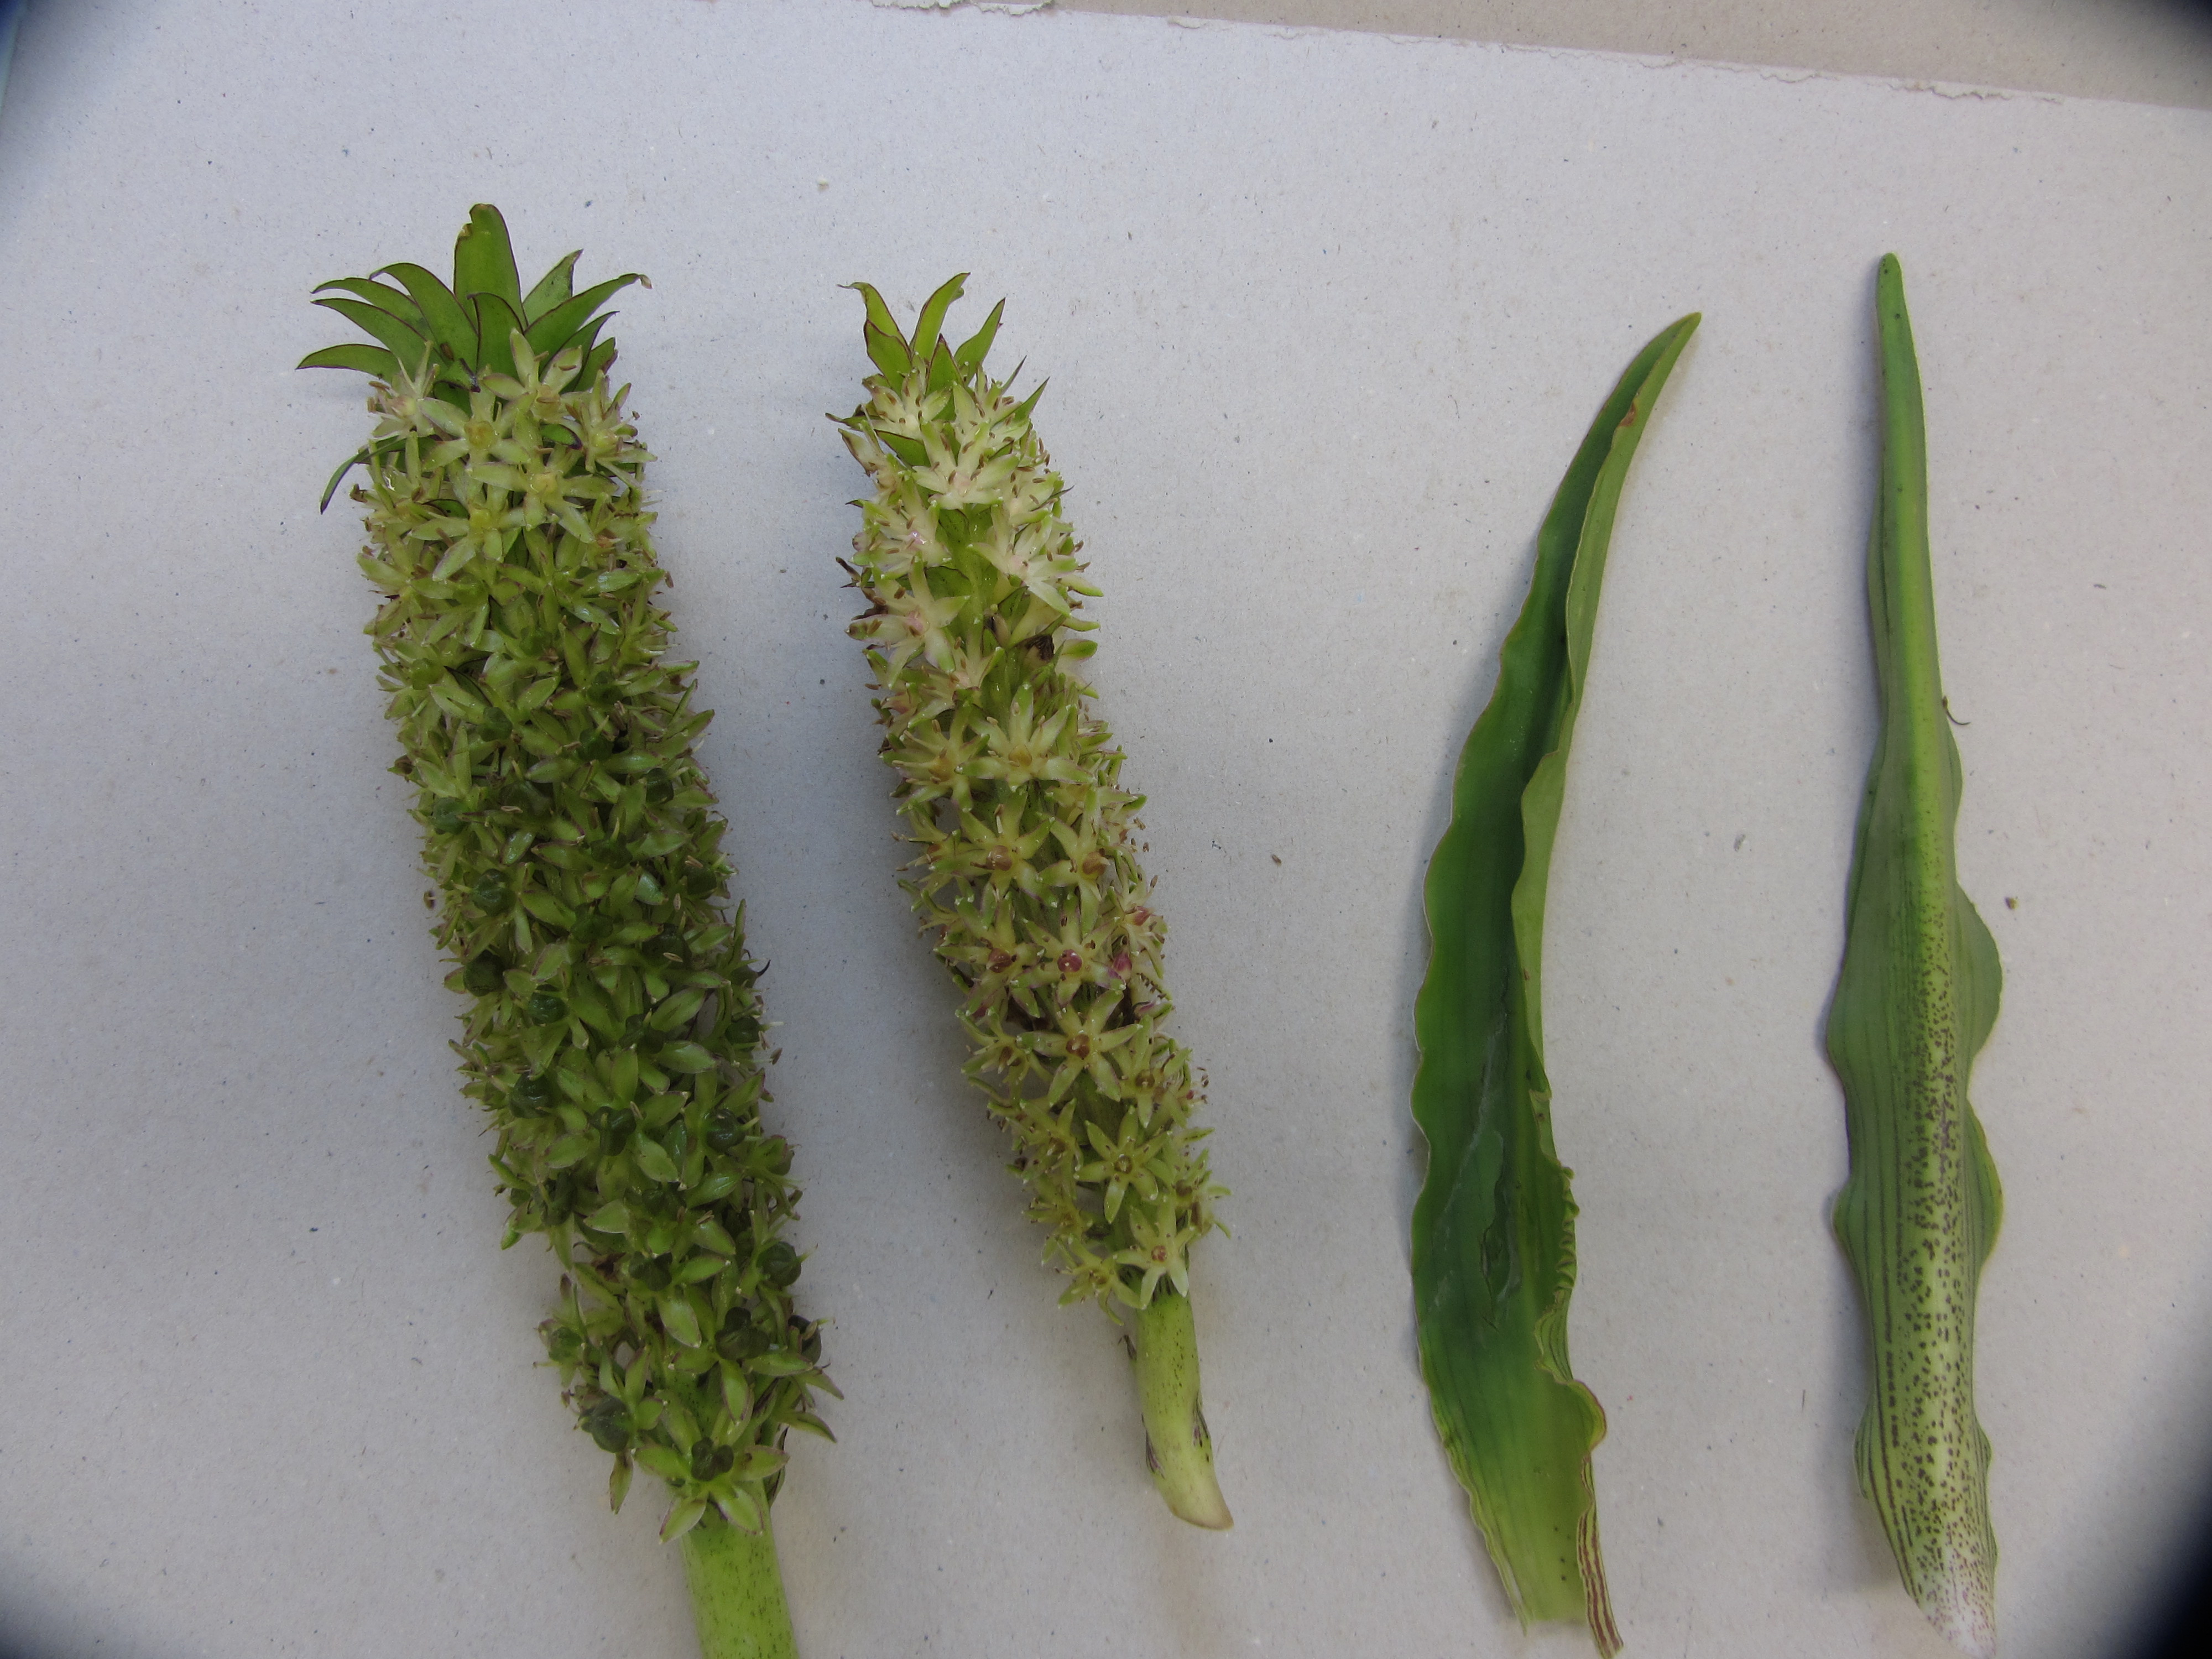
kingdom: Plantae
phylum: Tracheophyta
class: Liliopsida
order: Asparagales
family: Asparagaceae
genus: Eucomis
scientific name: Eucomis comosa
